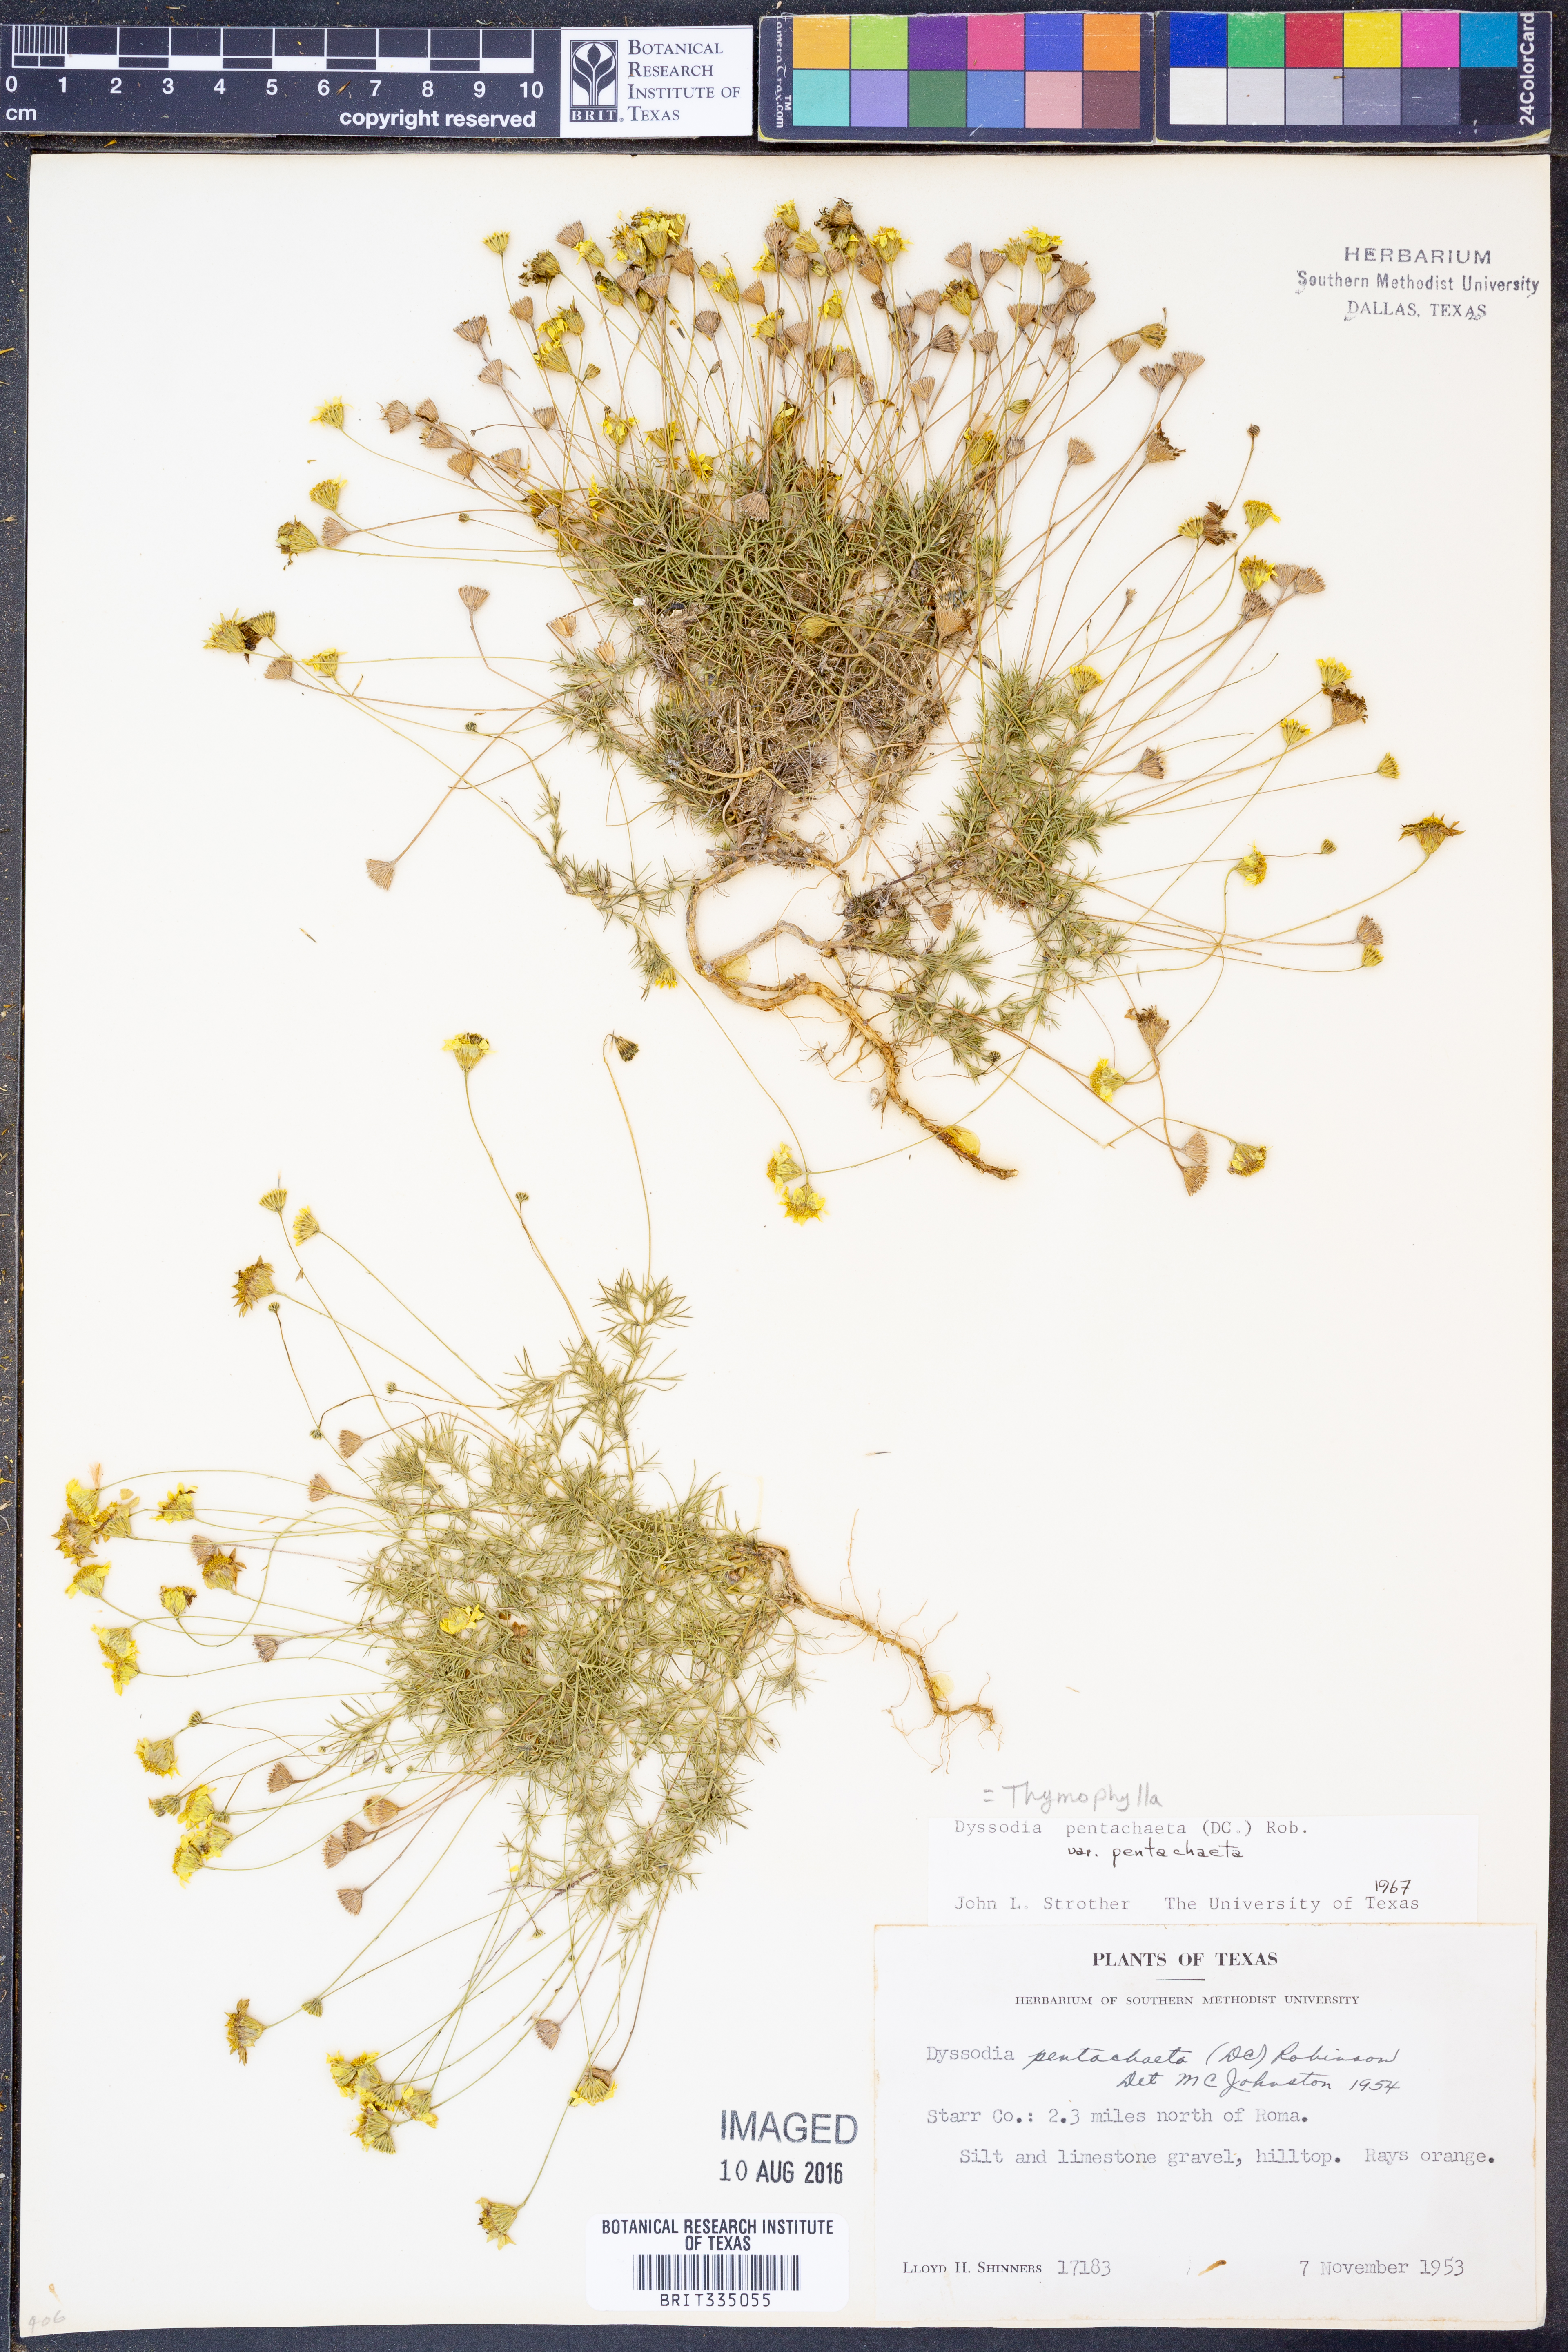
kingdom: Plantae
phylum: Tracheophyta
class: Magnoliopsida
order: Asterales
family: Asteraceae
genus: Thymophylla
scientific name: Thymophylla pentachaeta
